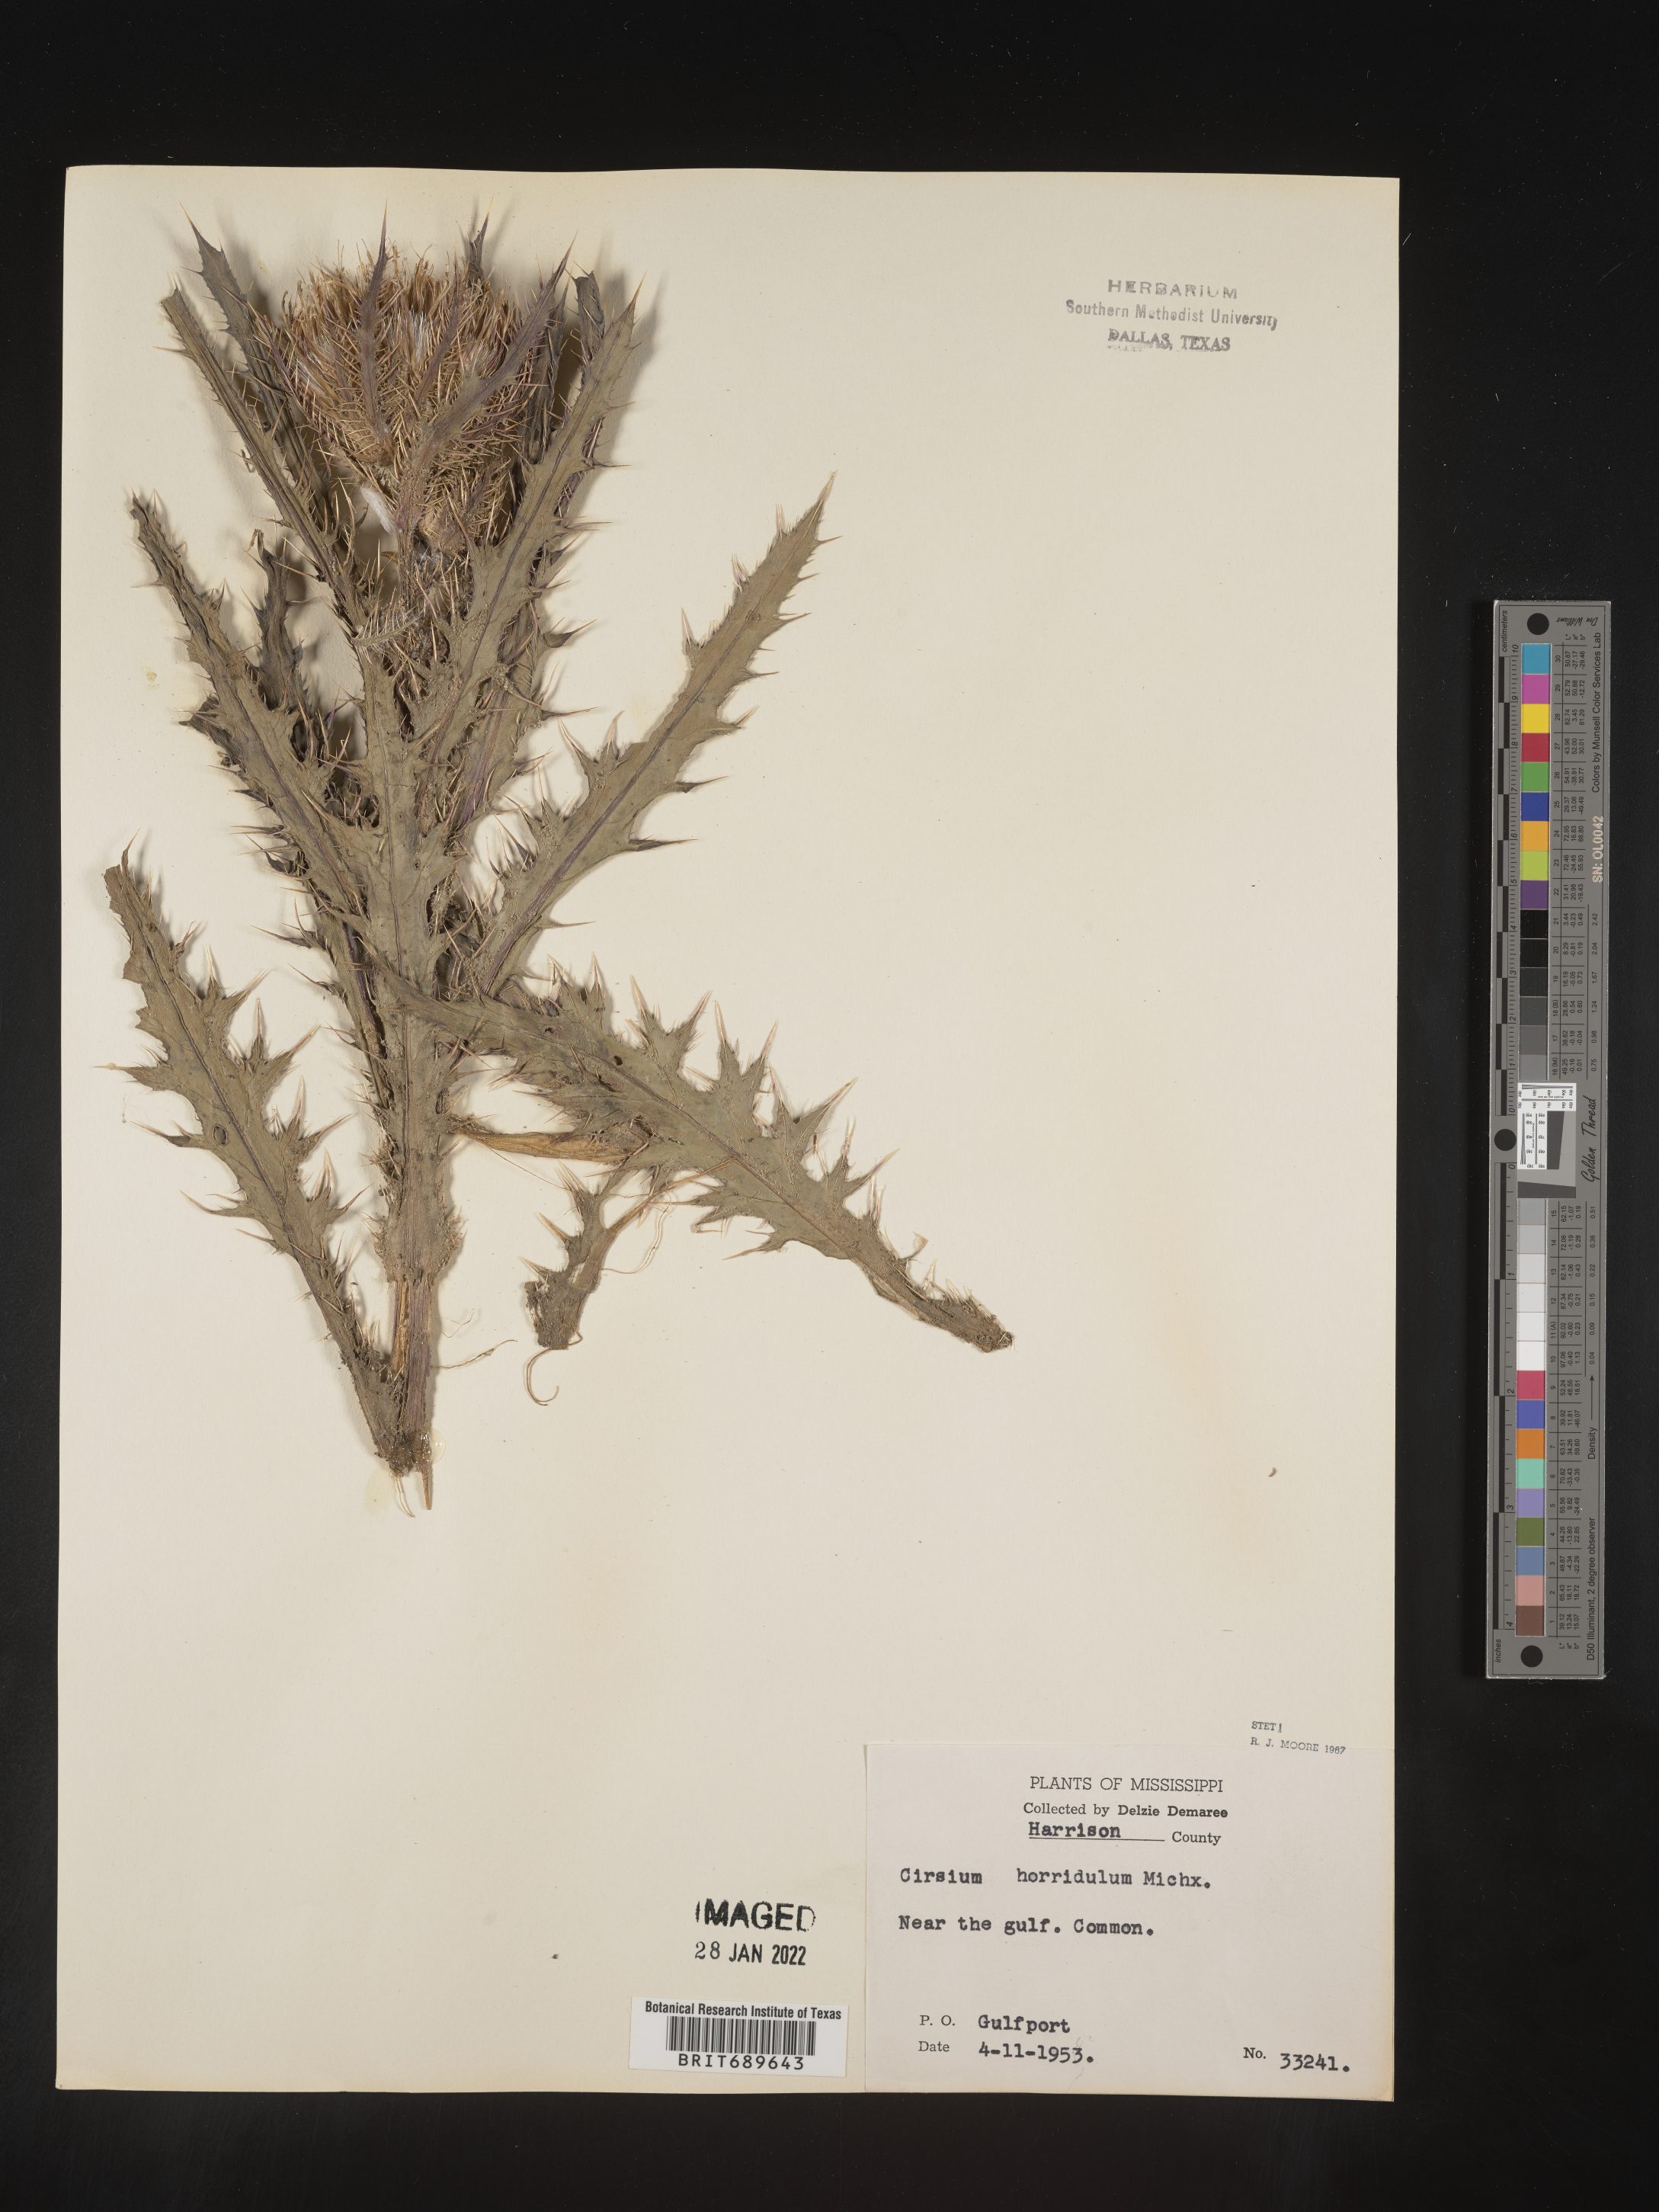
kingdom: Plantae
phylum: Tracheophyta
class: Magnoliopsida
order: Asterales
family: Asteraceae
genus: Cirsium
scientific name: Cirsium horridulum
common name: Bristly thistle
